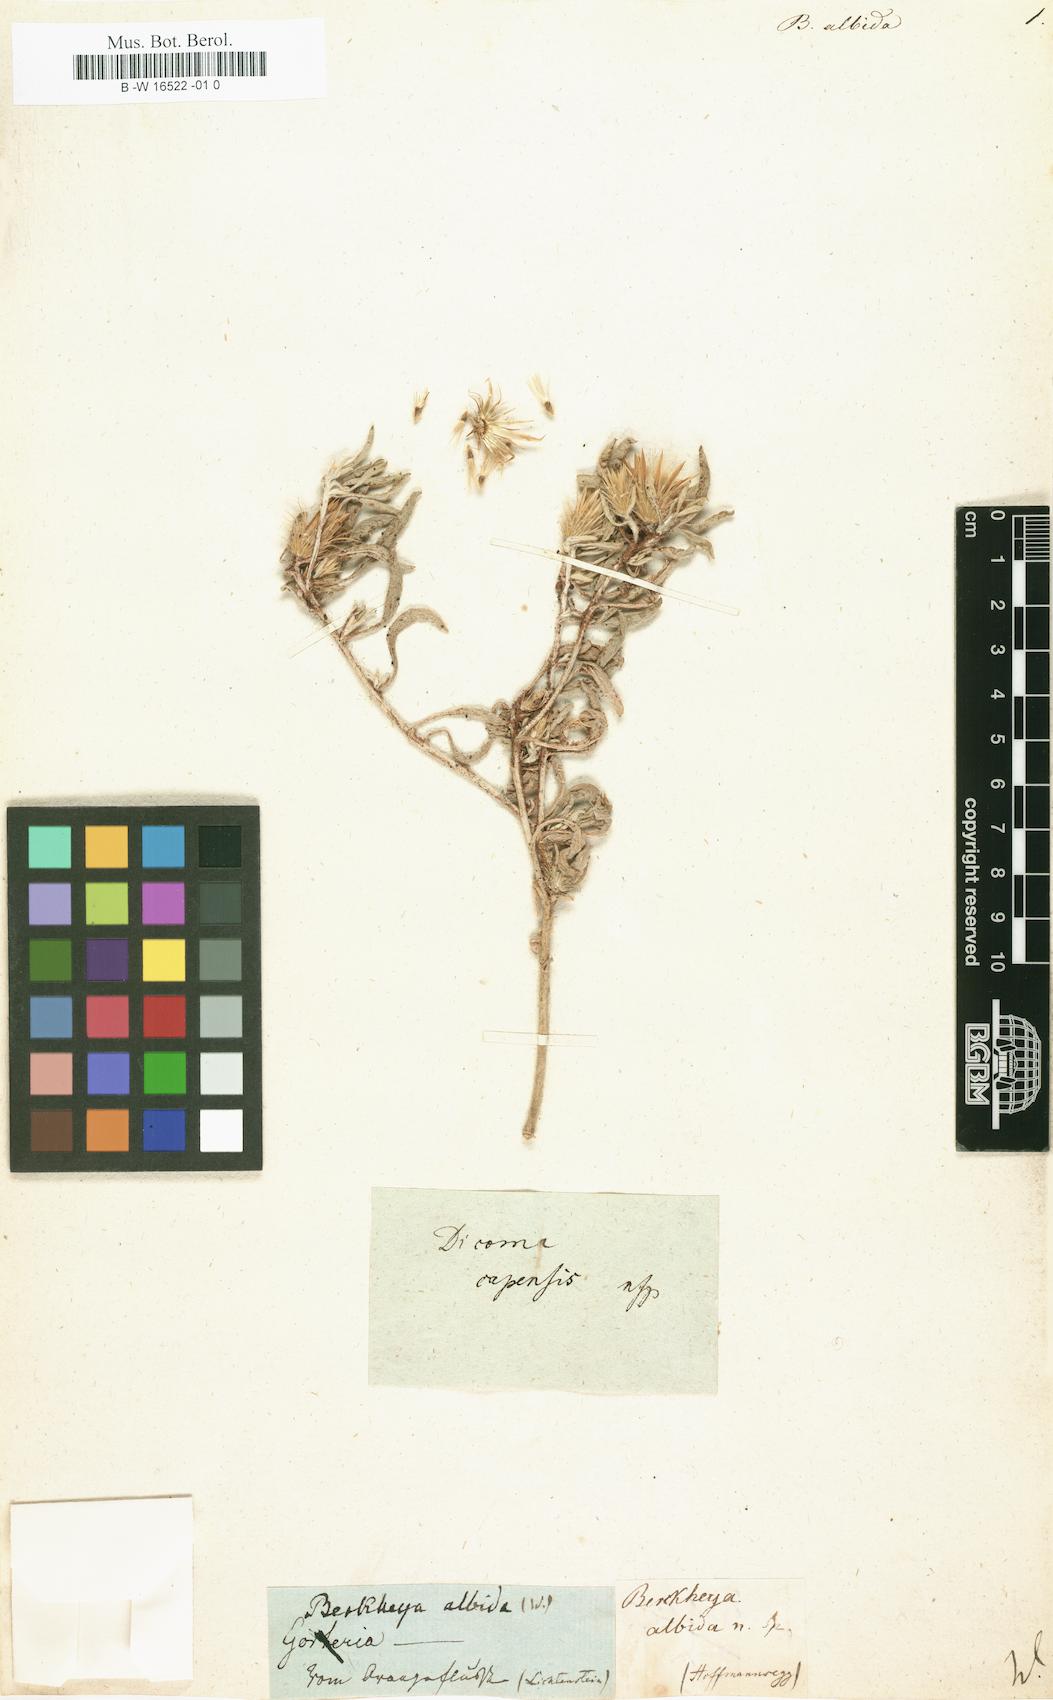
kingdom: Plantae
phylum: Tracheophyta
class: Magnoliopsida
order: Asterales
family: Asteraceae
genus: Dicoma
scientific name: Dicoma capensis
